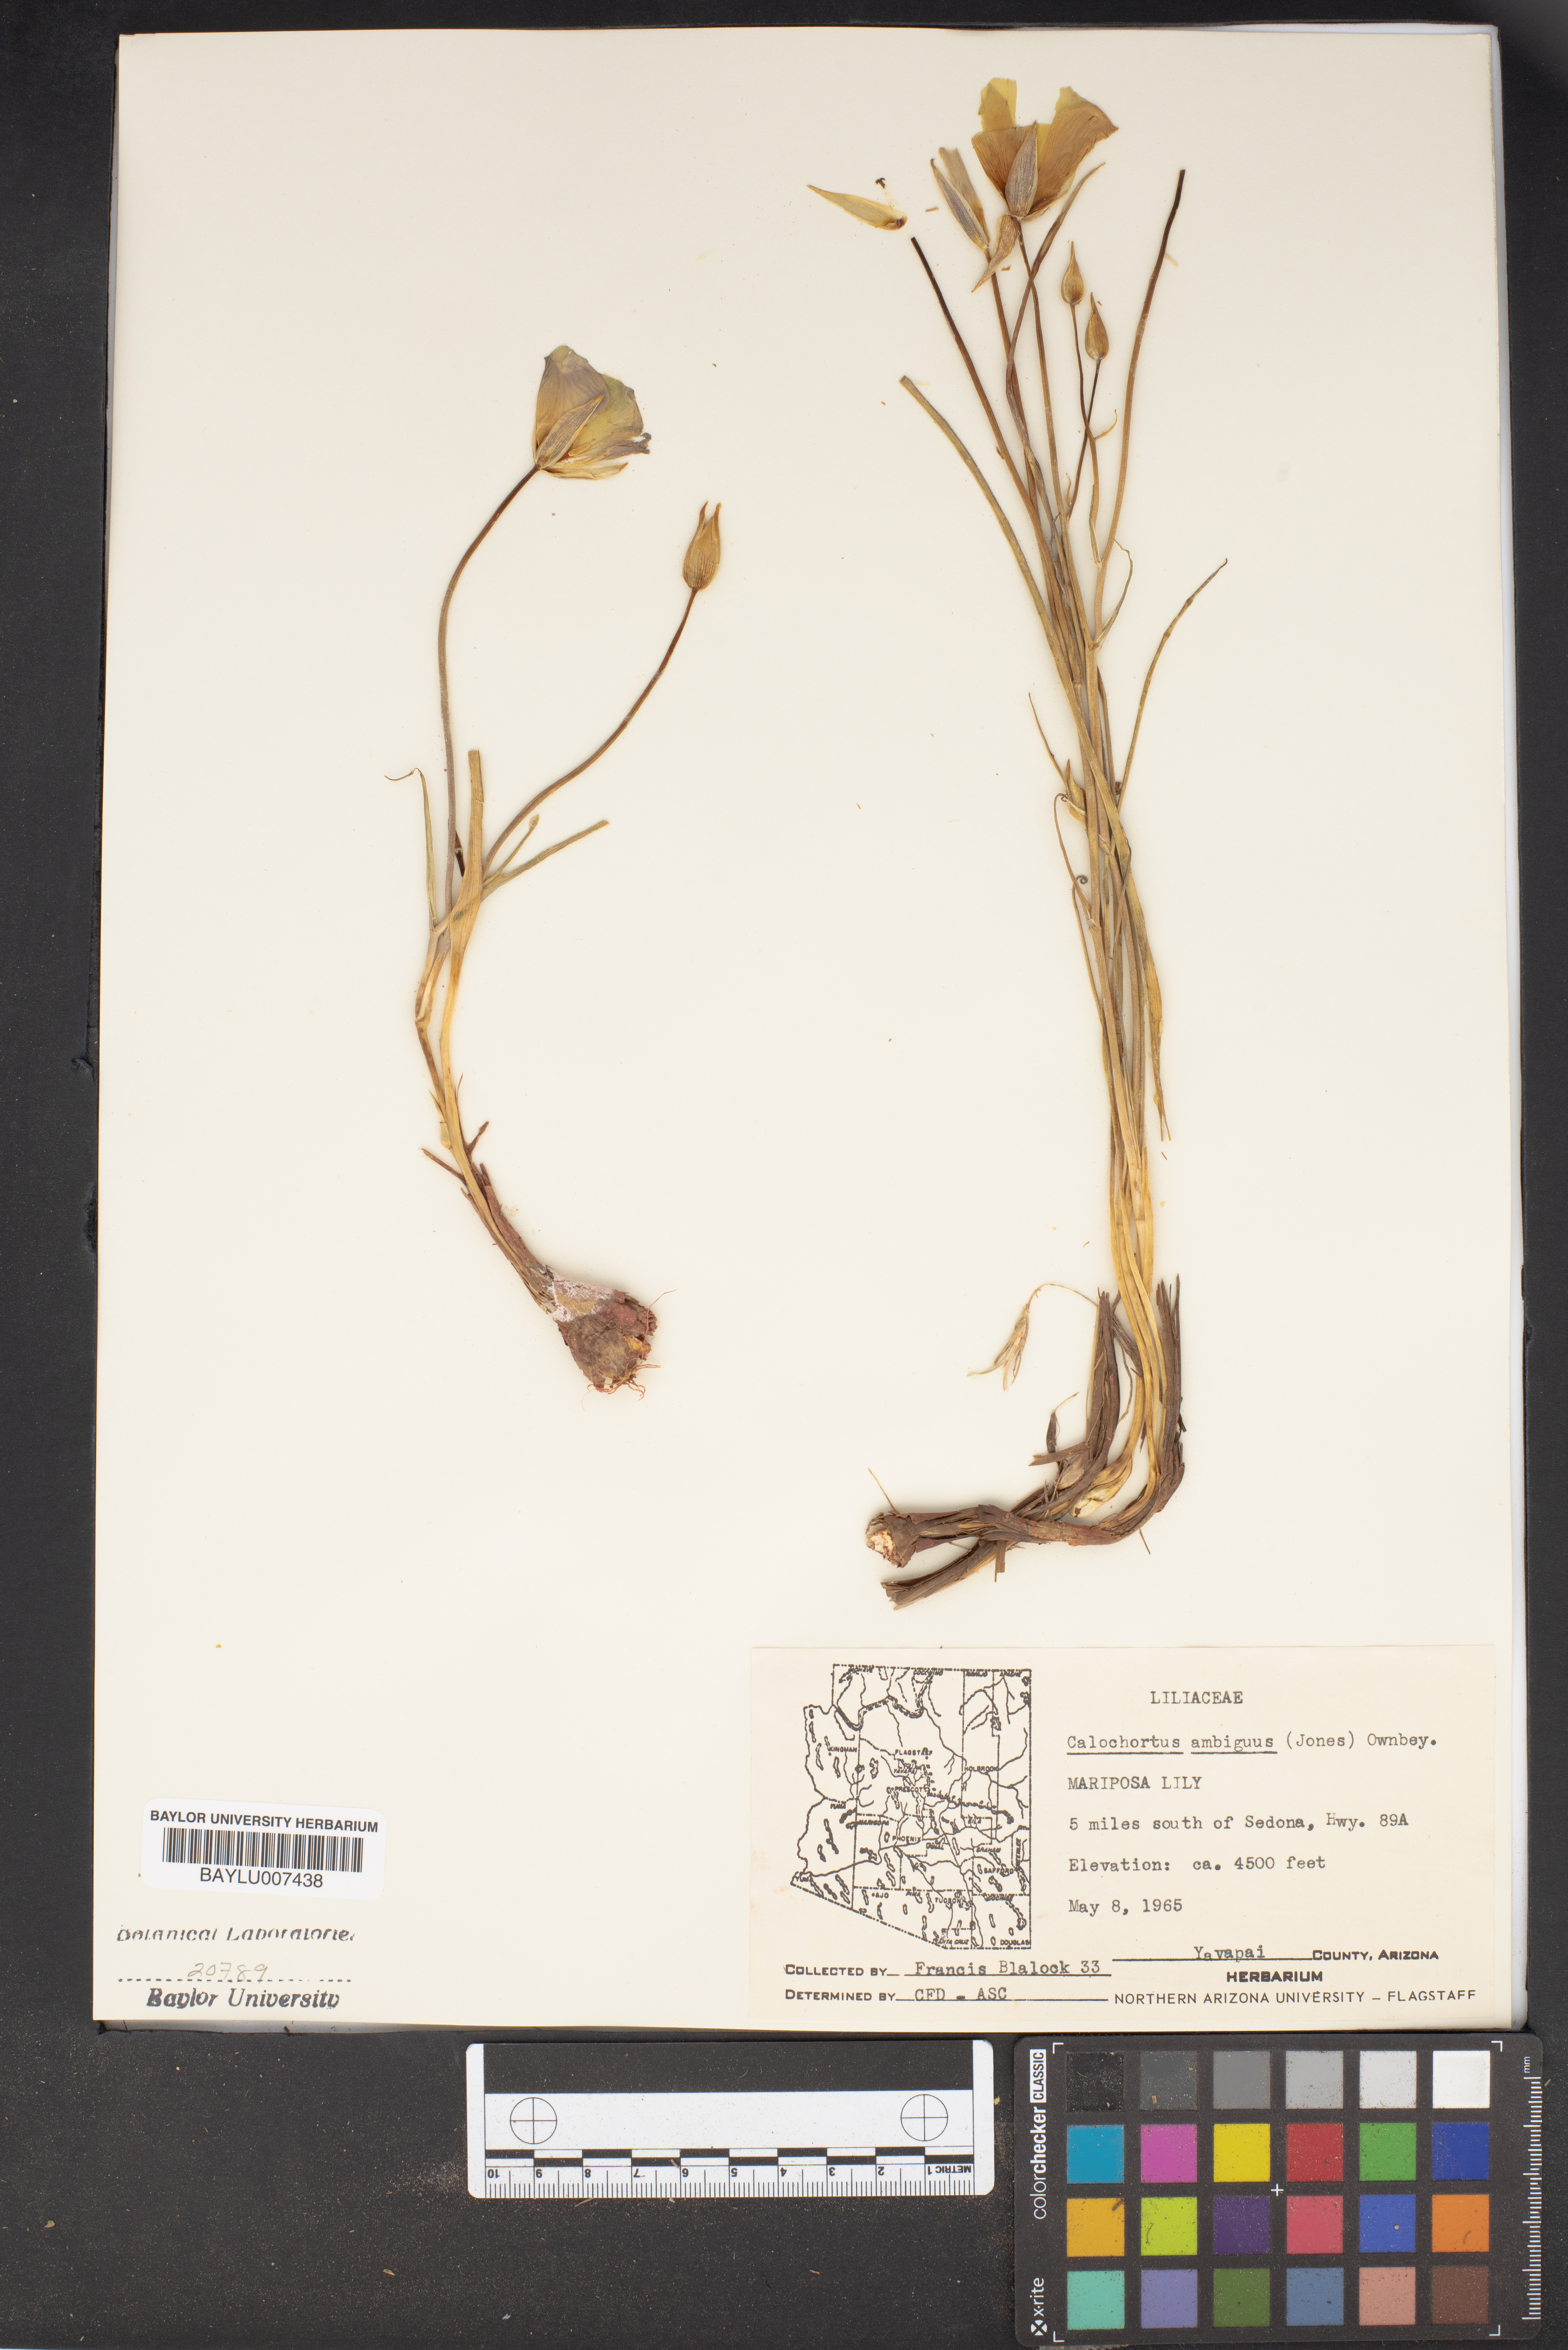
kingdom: Plantae
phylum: Tracheophyta
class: Liliopsida
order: Liliales
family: Liliaceae
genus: Calochortus
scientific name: Calochortus ambiguus
